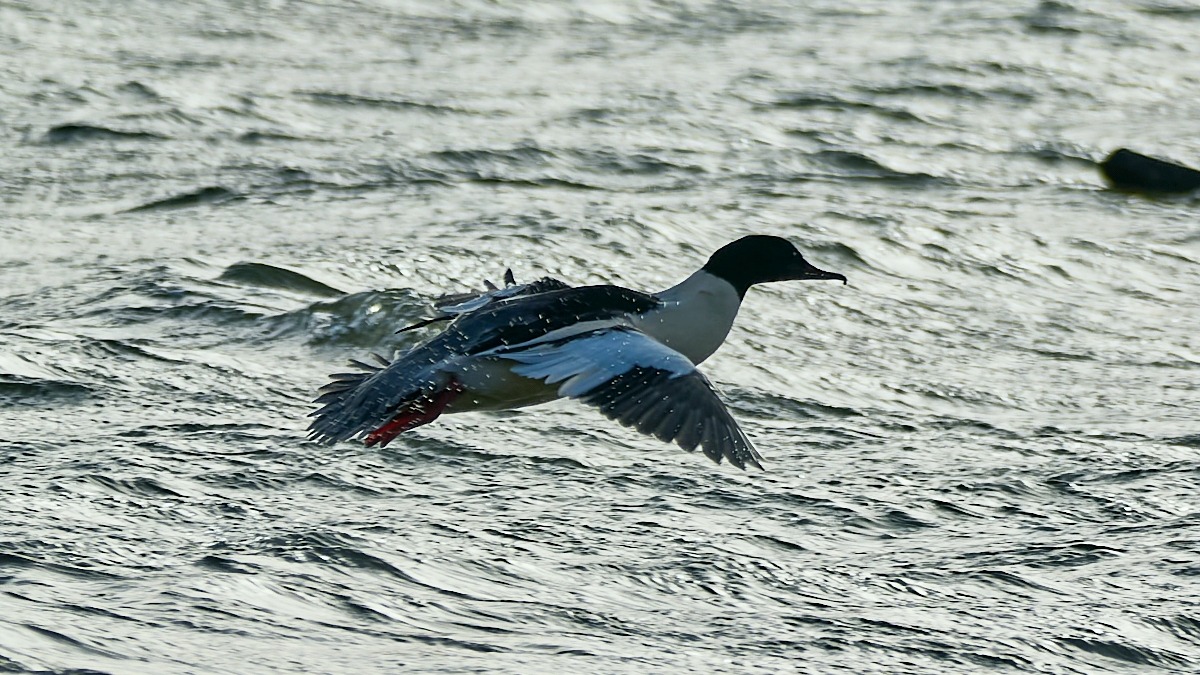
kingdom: Animalia
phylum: Chordata
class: Aves
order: Anseriformes
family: Anatidae
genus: Mergus
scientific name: Mergus merganser
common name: Stor skallesluger
